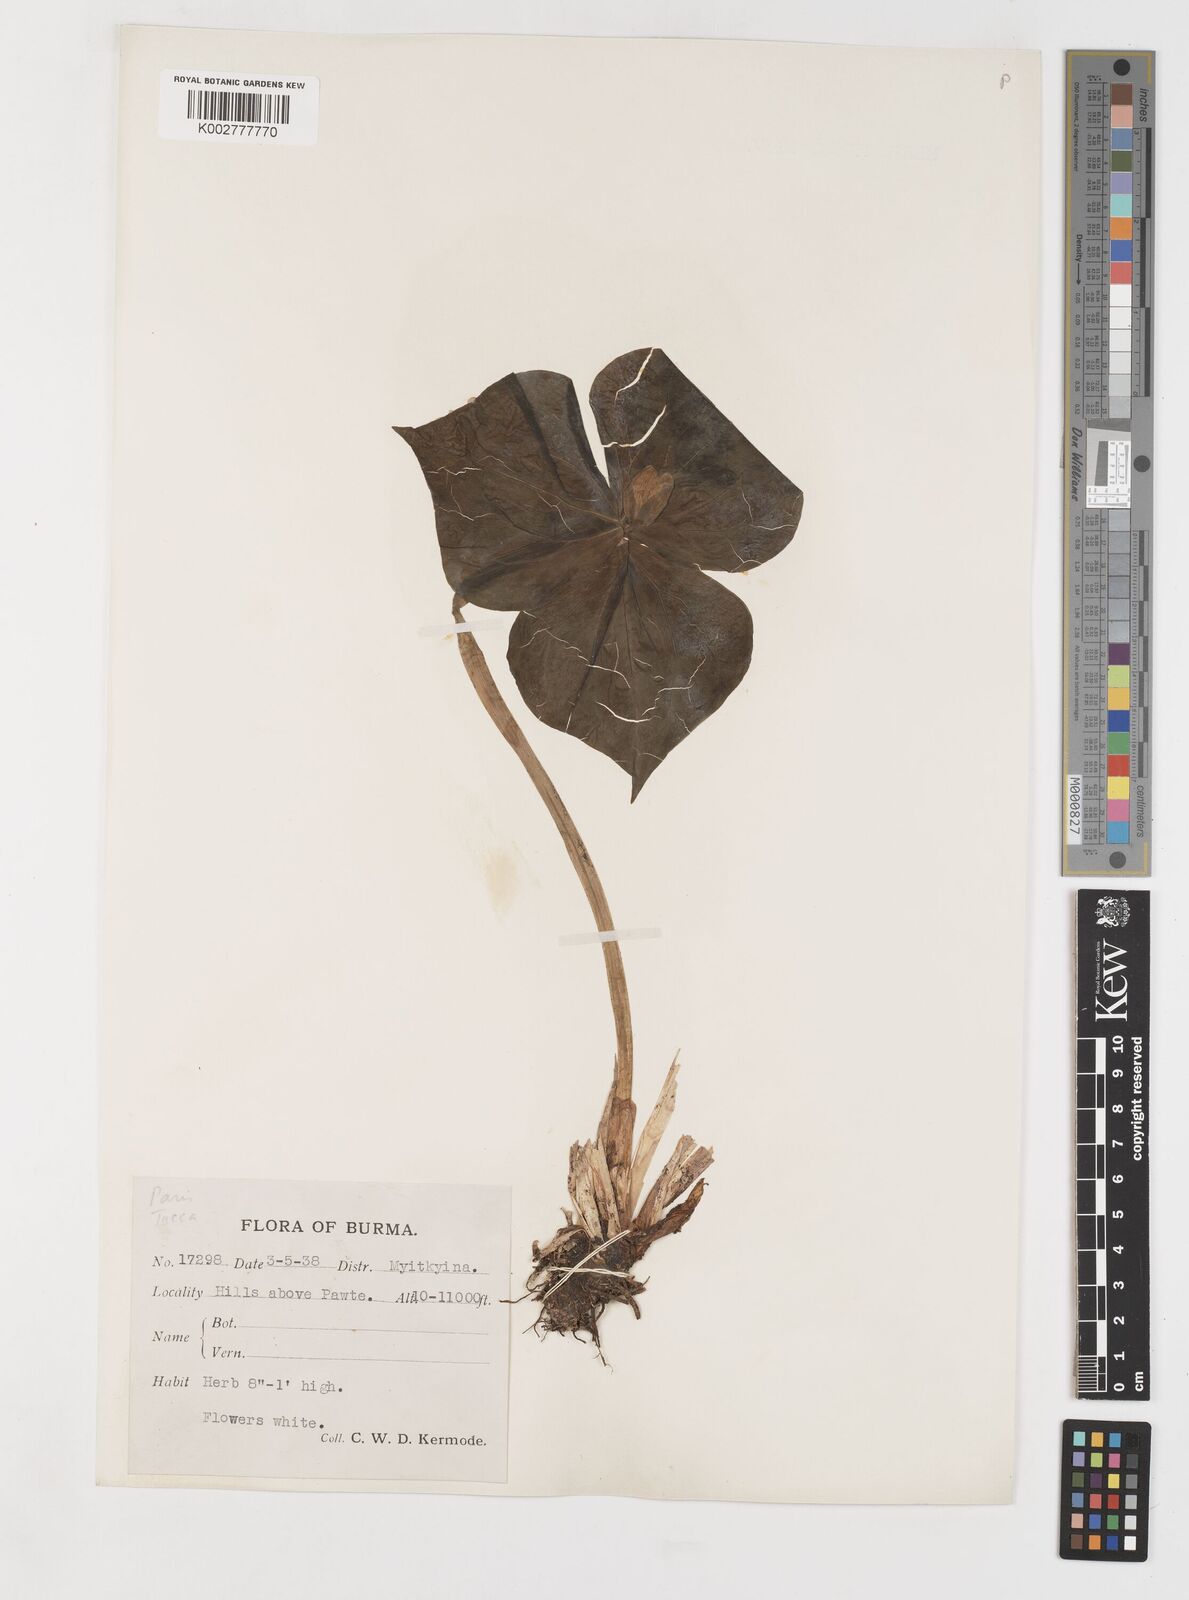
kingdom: Plantae
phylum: Tracheophyta
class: Liliopsida
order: Liliales
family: Melanthiaceae
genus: Trillium
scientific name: Trillium govanianum
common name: Himalayan trillium
